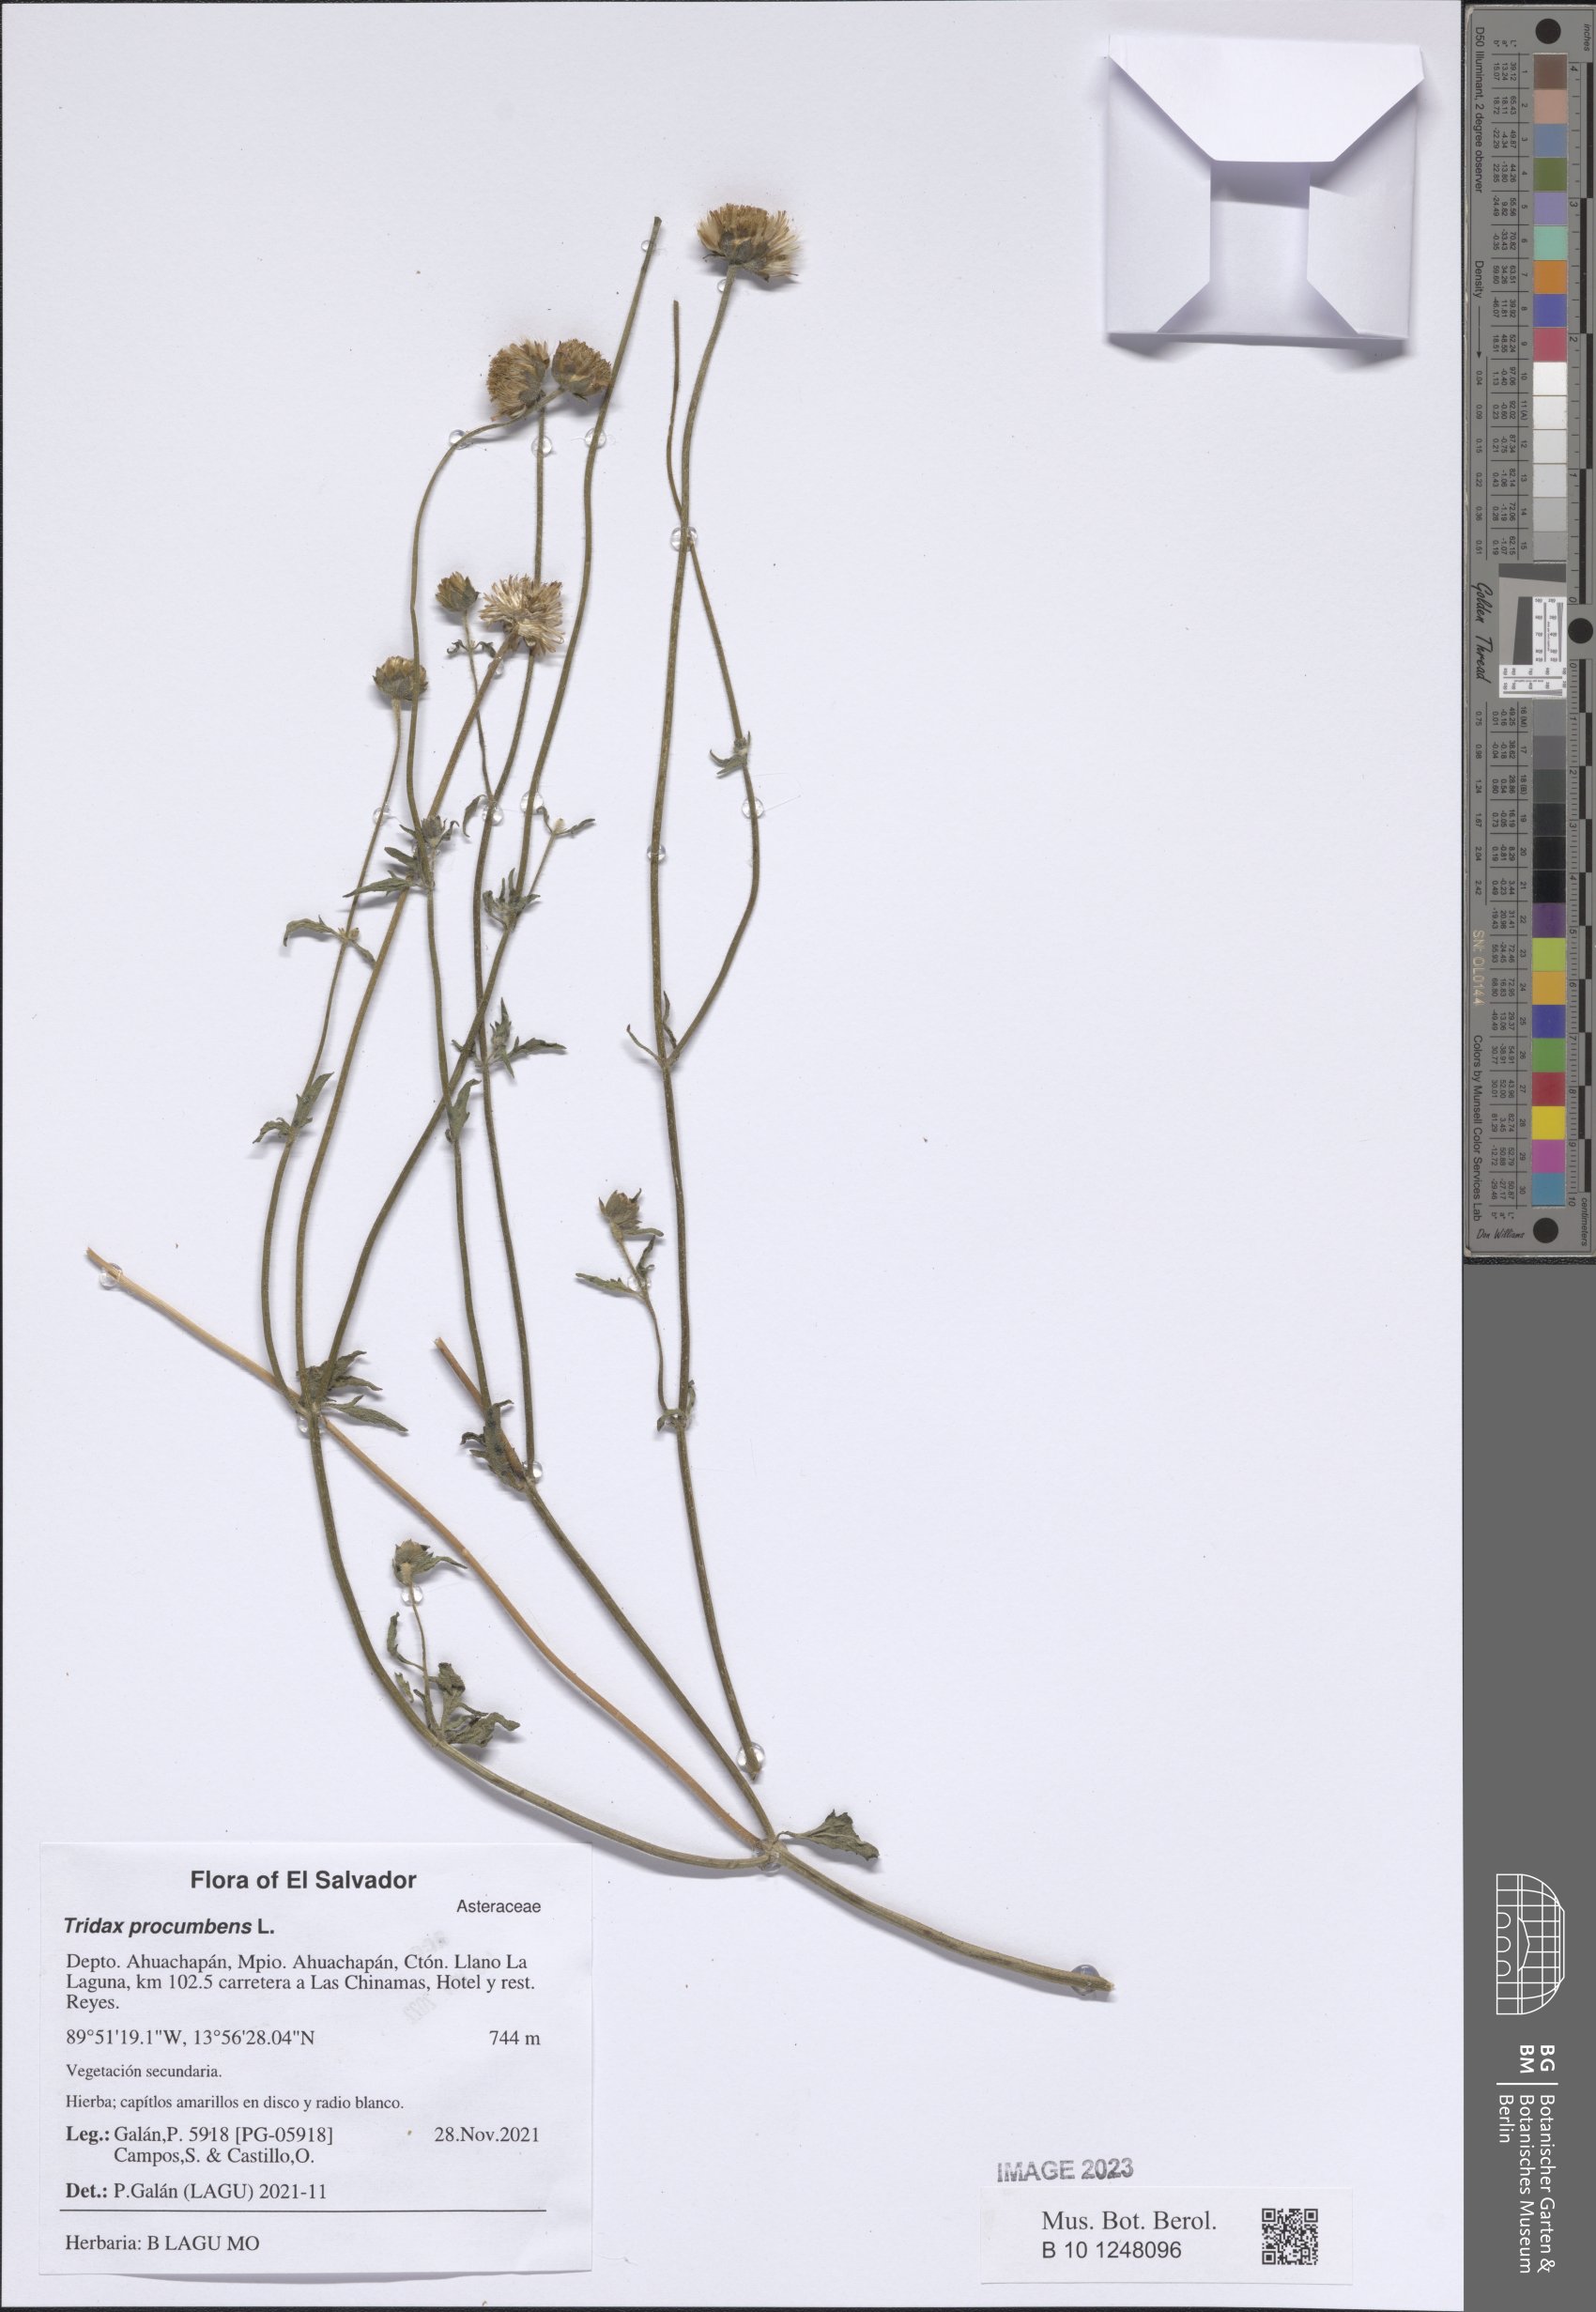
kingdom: Plantae
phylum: Tracheophyta
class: Magnoliopsida
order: Asterales
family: Asteraceae
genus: Tridax
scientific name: Tridax procumbens
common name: Coatbuttons
